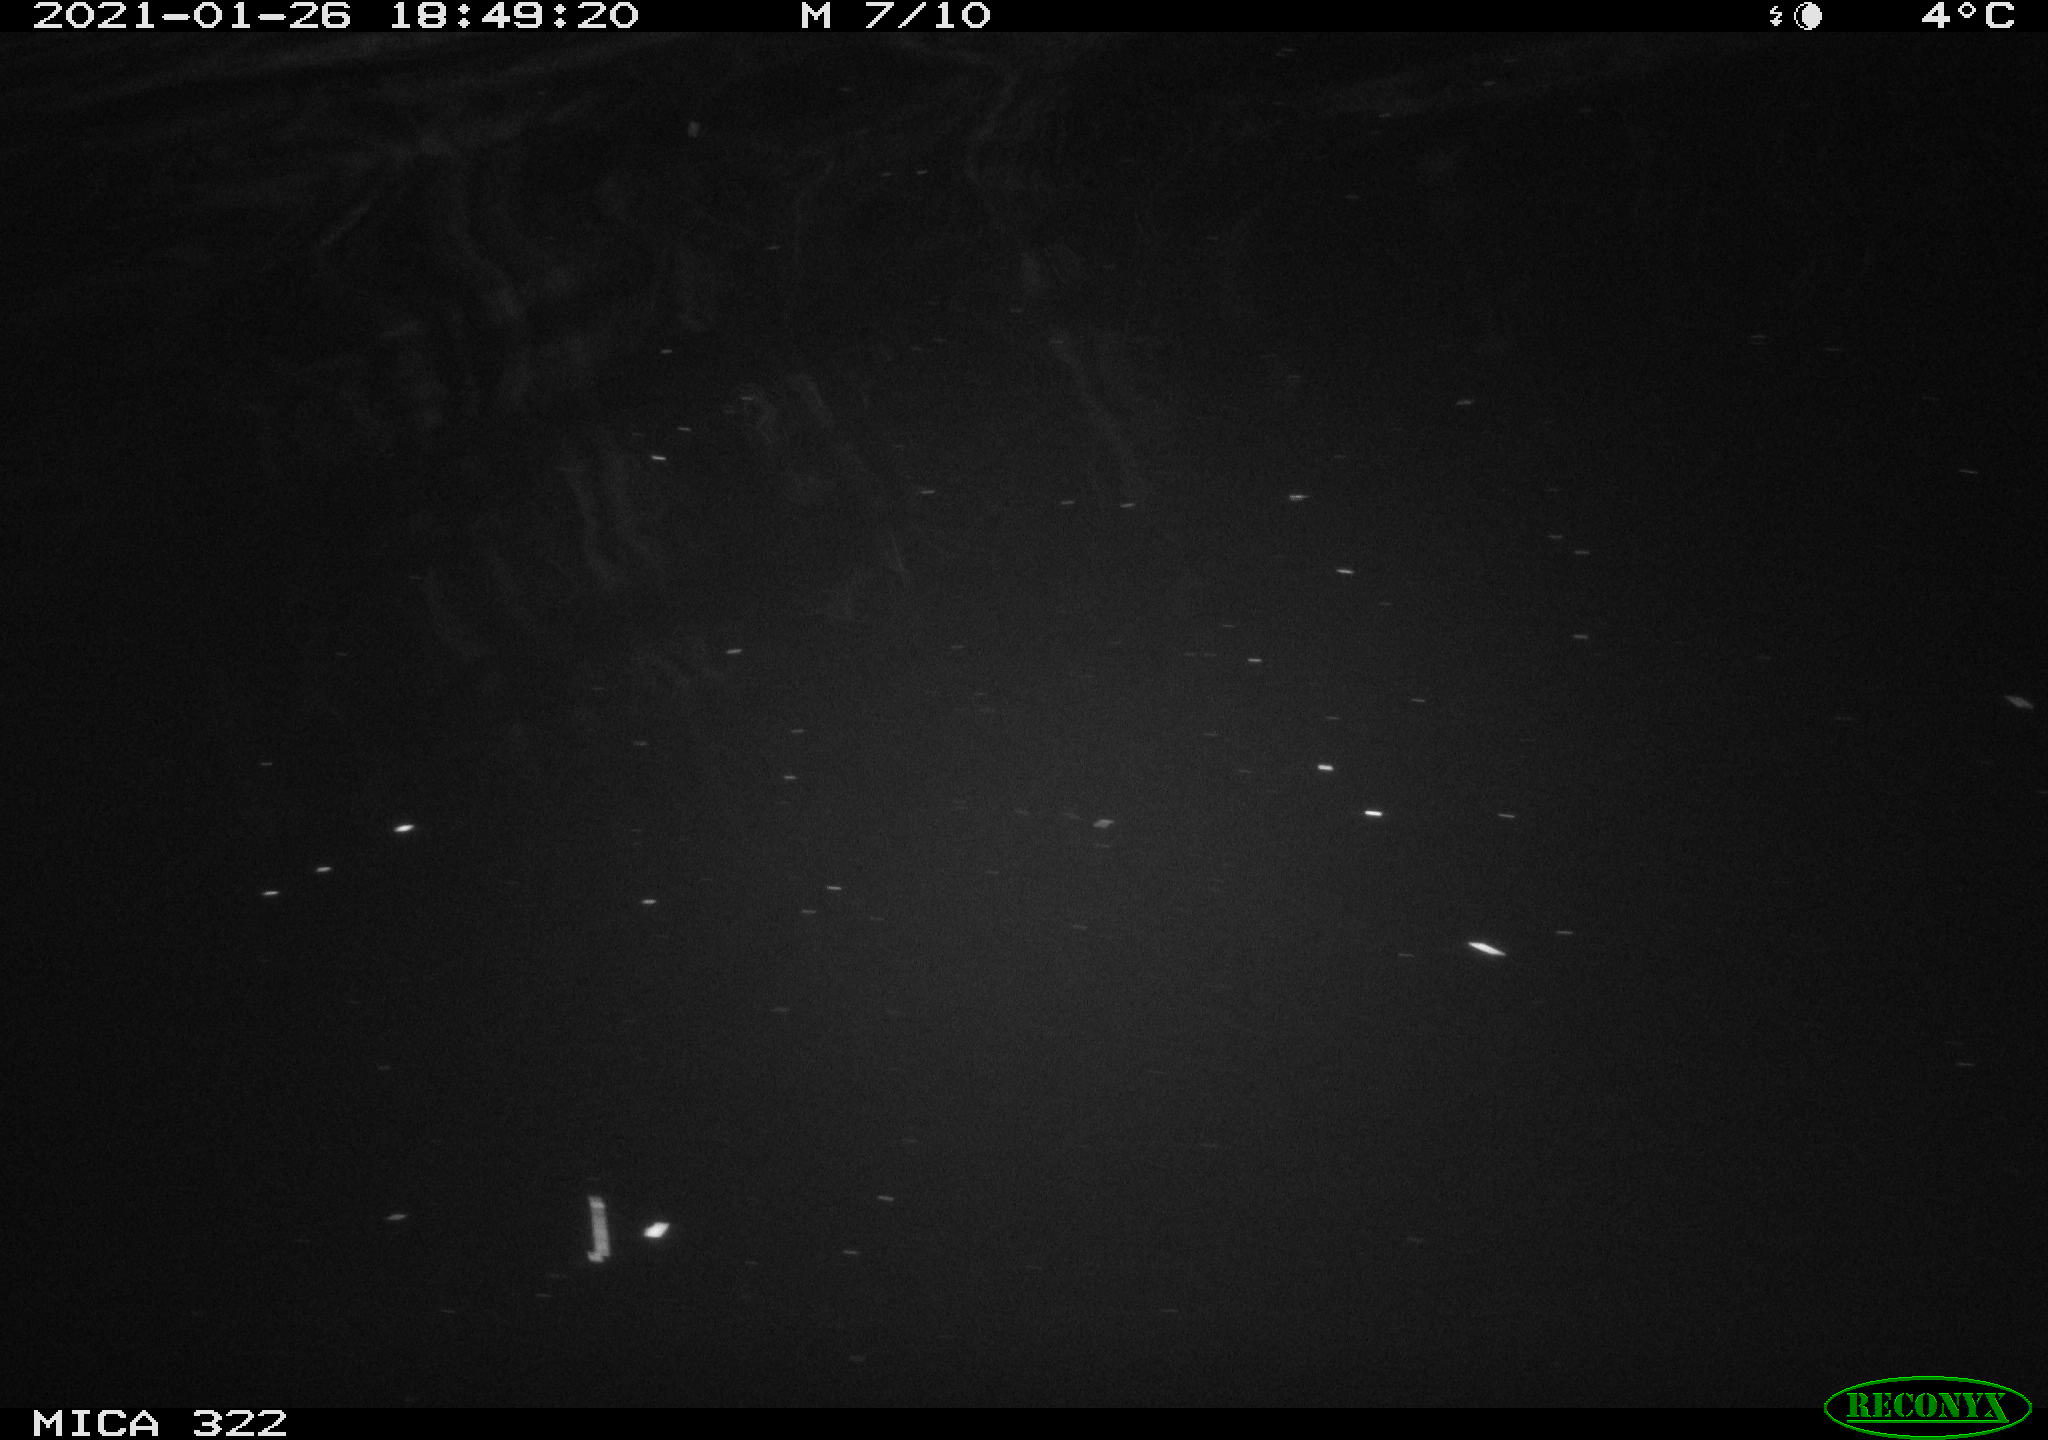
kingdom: Animalia
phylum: Chordata
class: Aves
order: Gruiformes
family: Rallidae
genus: Fulica
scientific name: Fulica atra
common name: Eurasian coot
